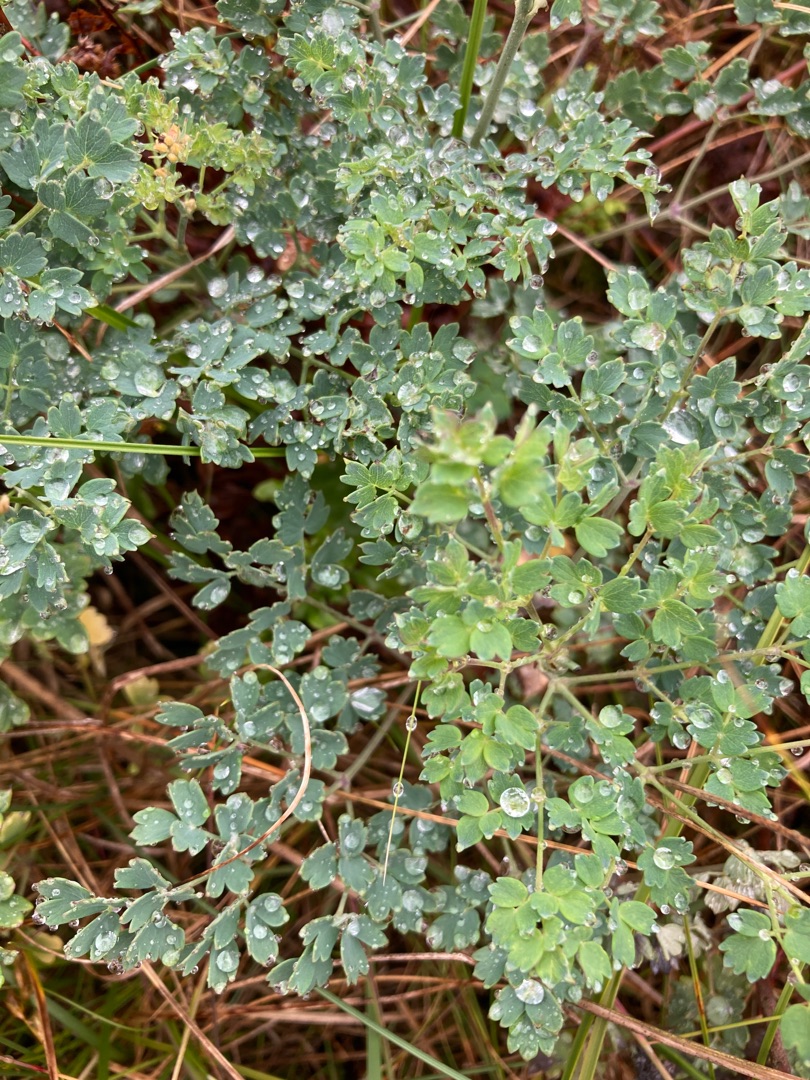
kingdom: Plantae
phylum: Tracheophyta
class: Magnoliopsida
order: Ranunculales
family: Ranunculaceae
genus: Thalictrum
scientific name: Thalictrum minus
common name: Liden frøstjerne
